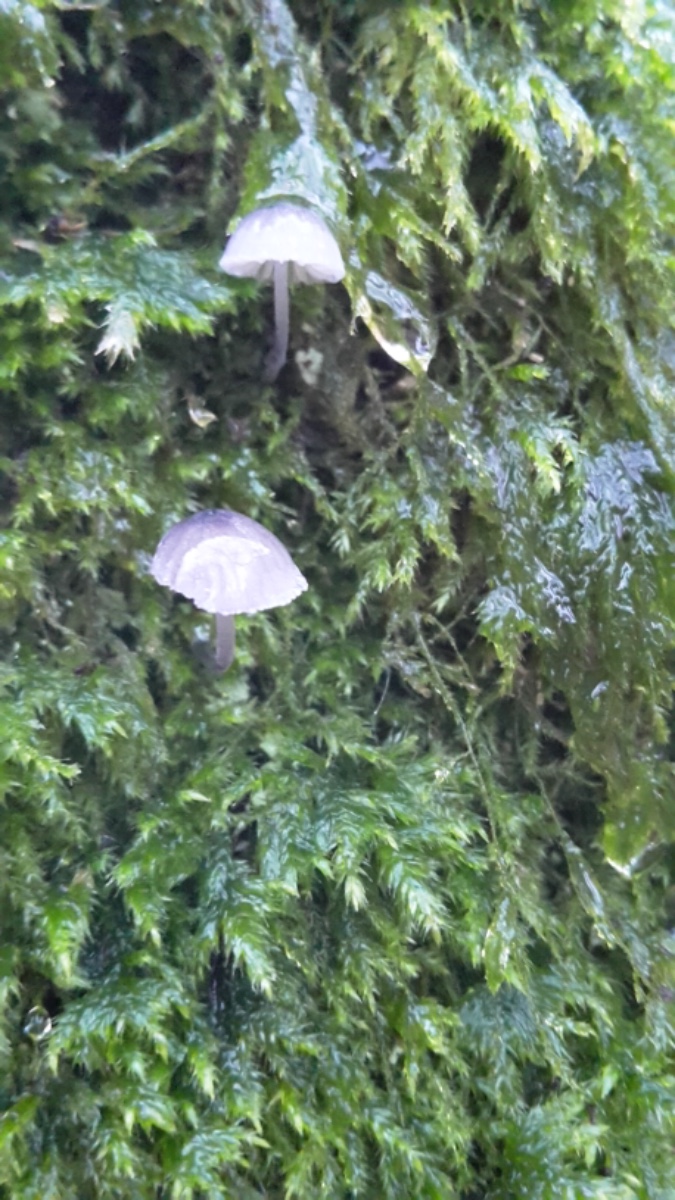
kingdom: Fungi
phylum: Basidiomycota
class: Agaricomycetes
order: Agaricales
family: Mycenaceae
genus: Mycena
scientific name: Mycena pseudocorticola
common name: gråblå bark-huesvamp
